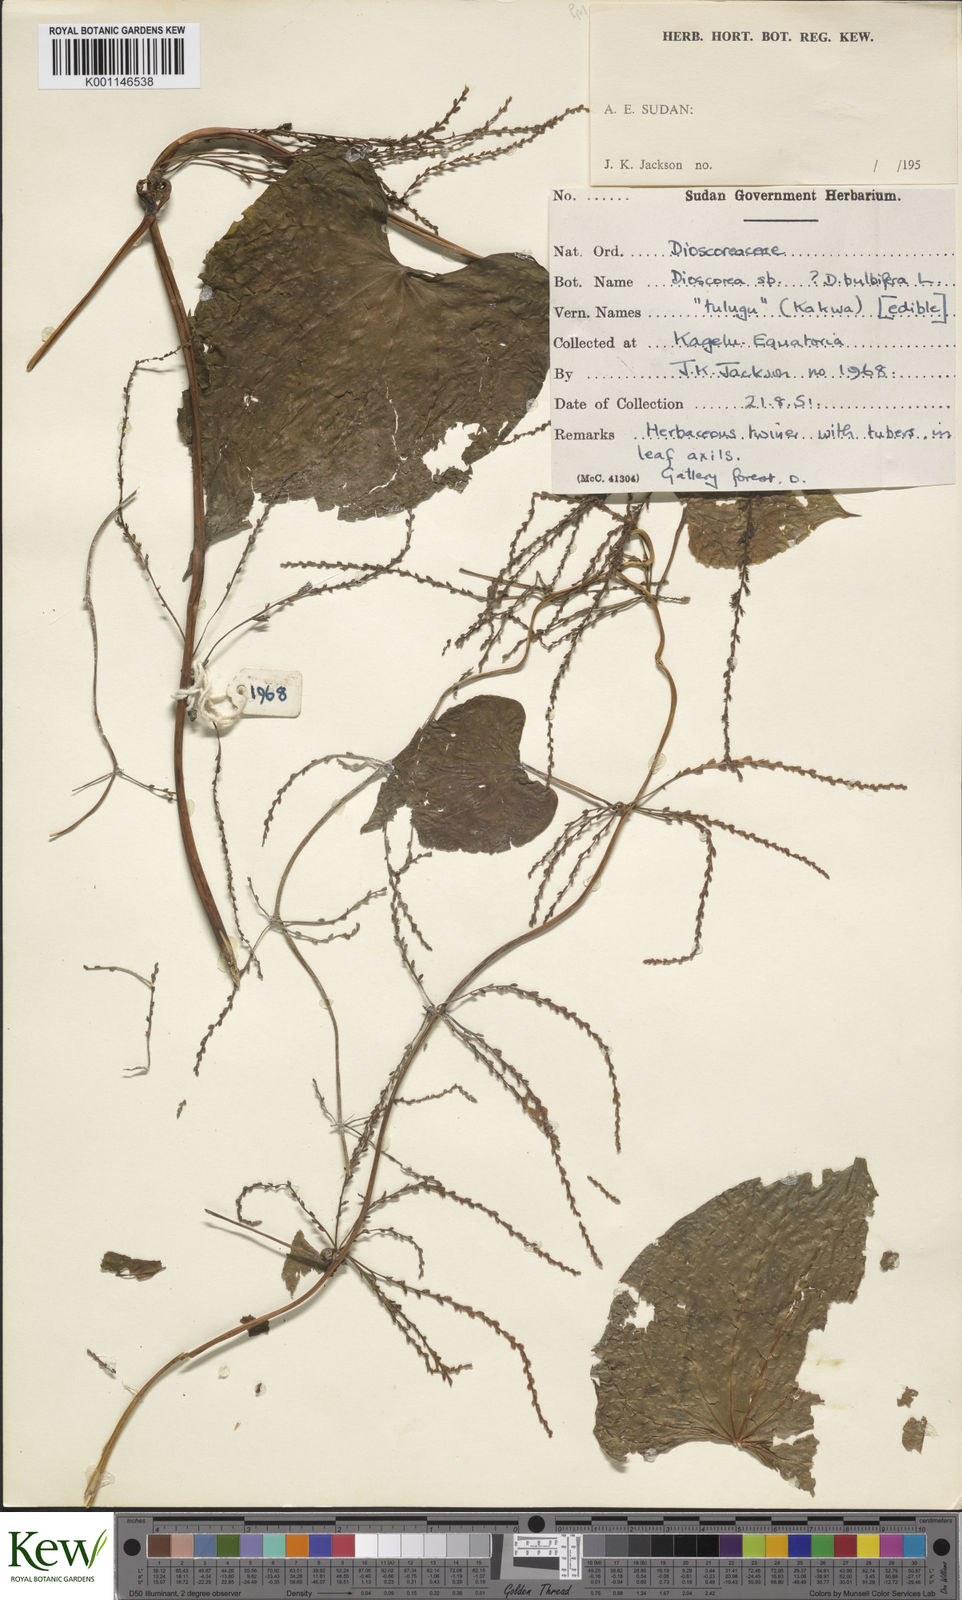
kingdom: Plantae
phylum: Tracheophyta
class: Liliopsida
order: Dioscoreales
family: Dioscoreaceae
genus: Dioscorea
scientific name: Dioscorea
